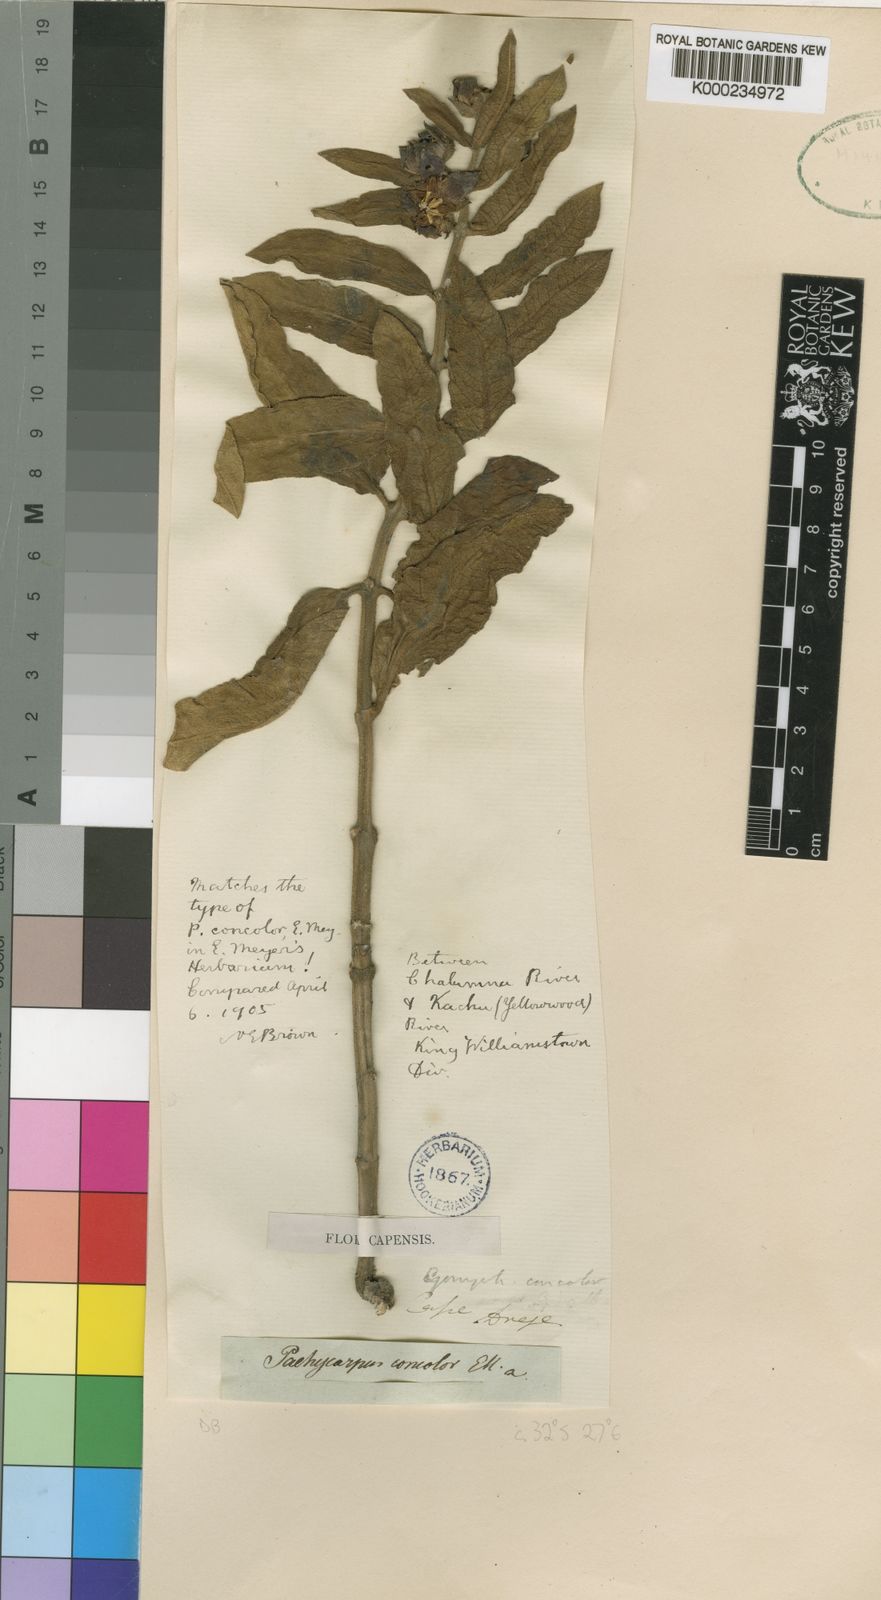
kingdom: Plantae
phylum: Tracheophyta
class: Magnoliopsida
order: Gentianales
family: Apocynaceae
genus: Pachycarpus
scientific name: Pachycarpus concolor
